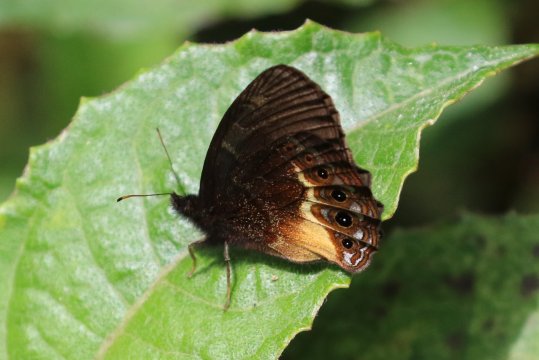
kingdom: Animalia
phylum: Arthropoda
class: Insecta
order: Lepidoptera
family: Nymphalidae
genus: Eretris
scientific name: Eretris porphyria
